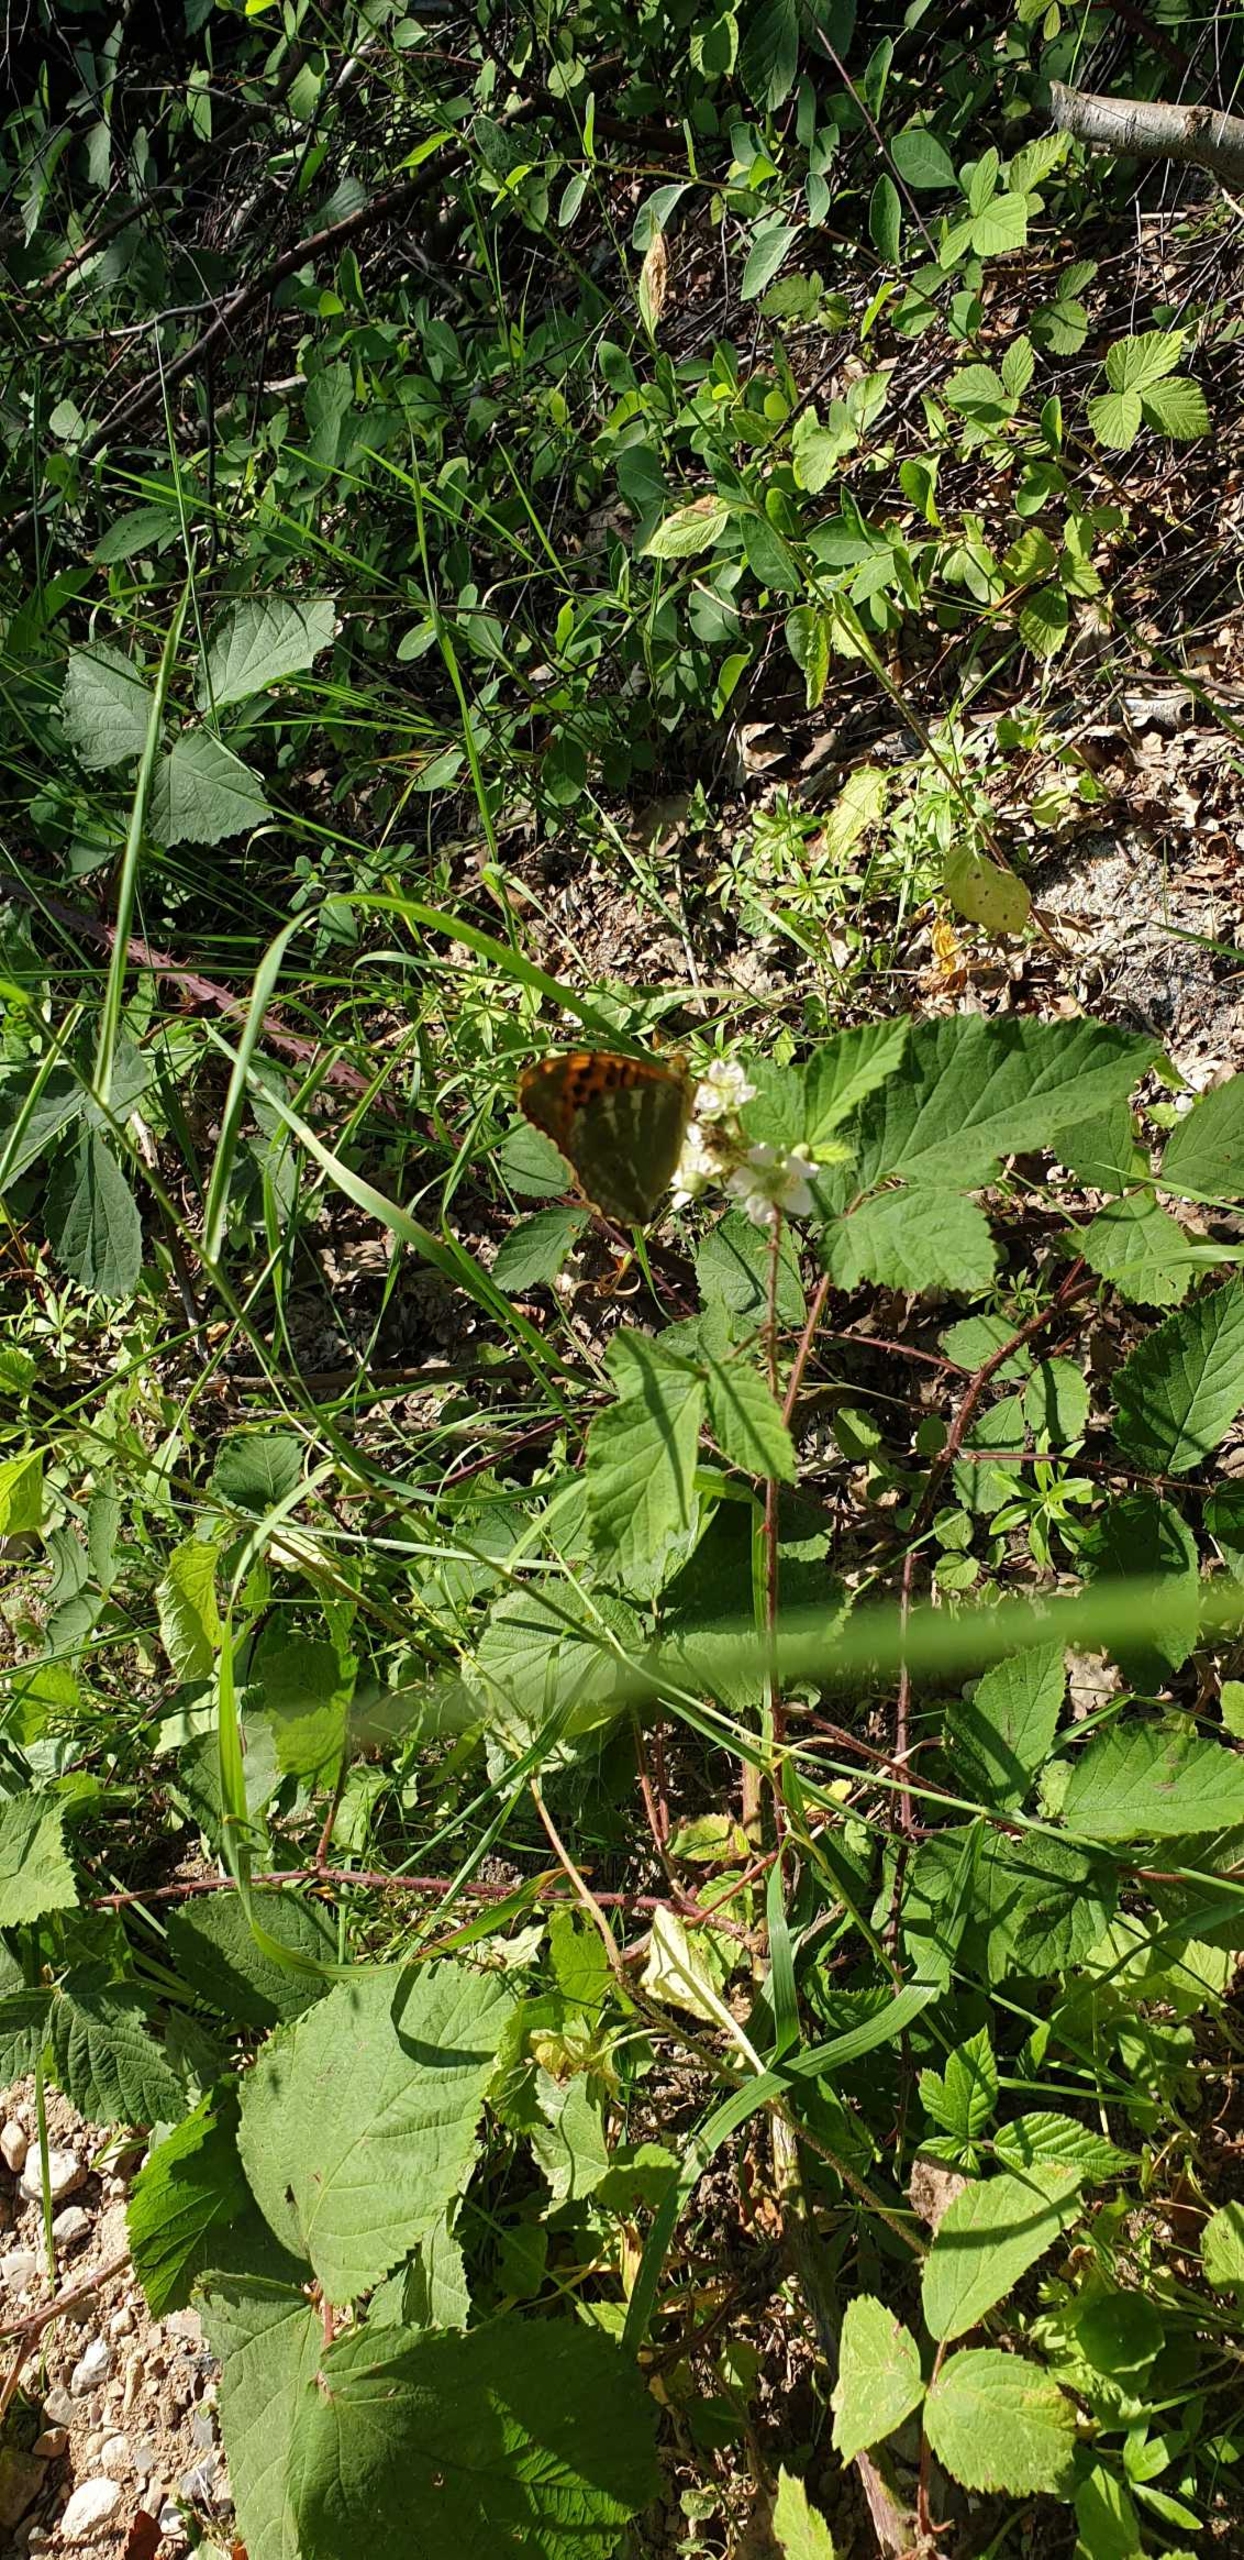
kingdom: Animalia
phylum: Arthropoda
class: Insecta
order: Lepidoptera
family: Nymphalidae
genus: Argynnis
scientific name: Argynnis paphia
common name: Kejserkåbe
